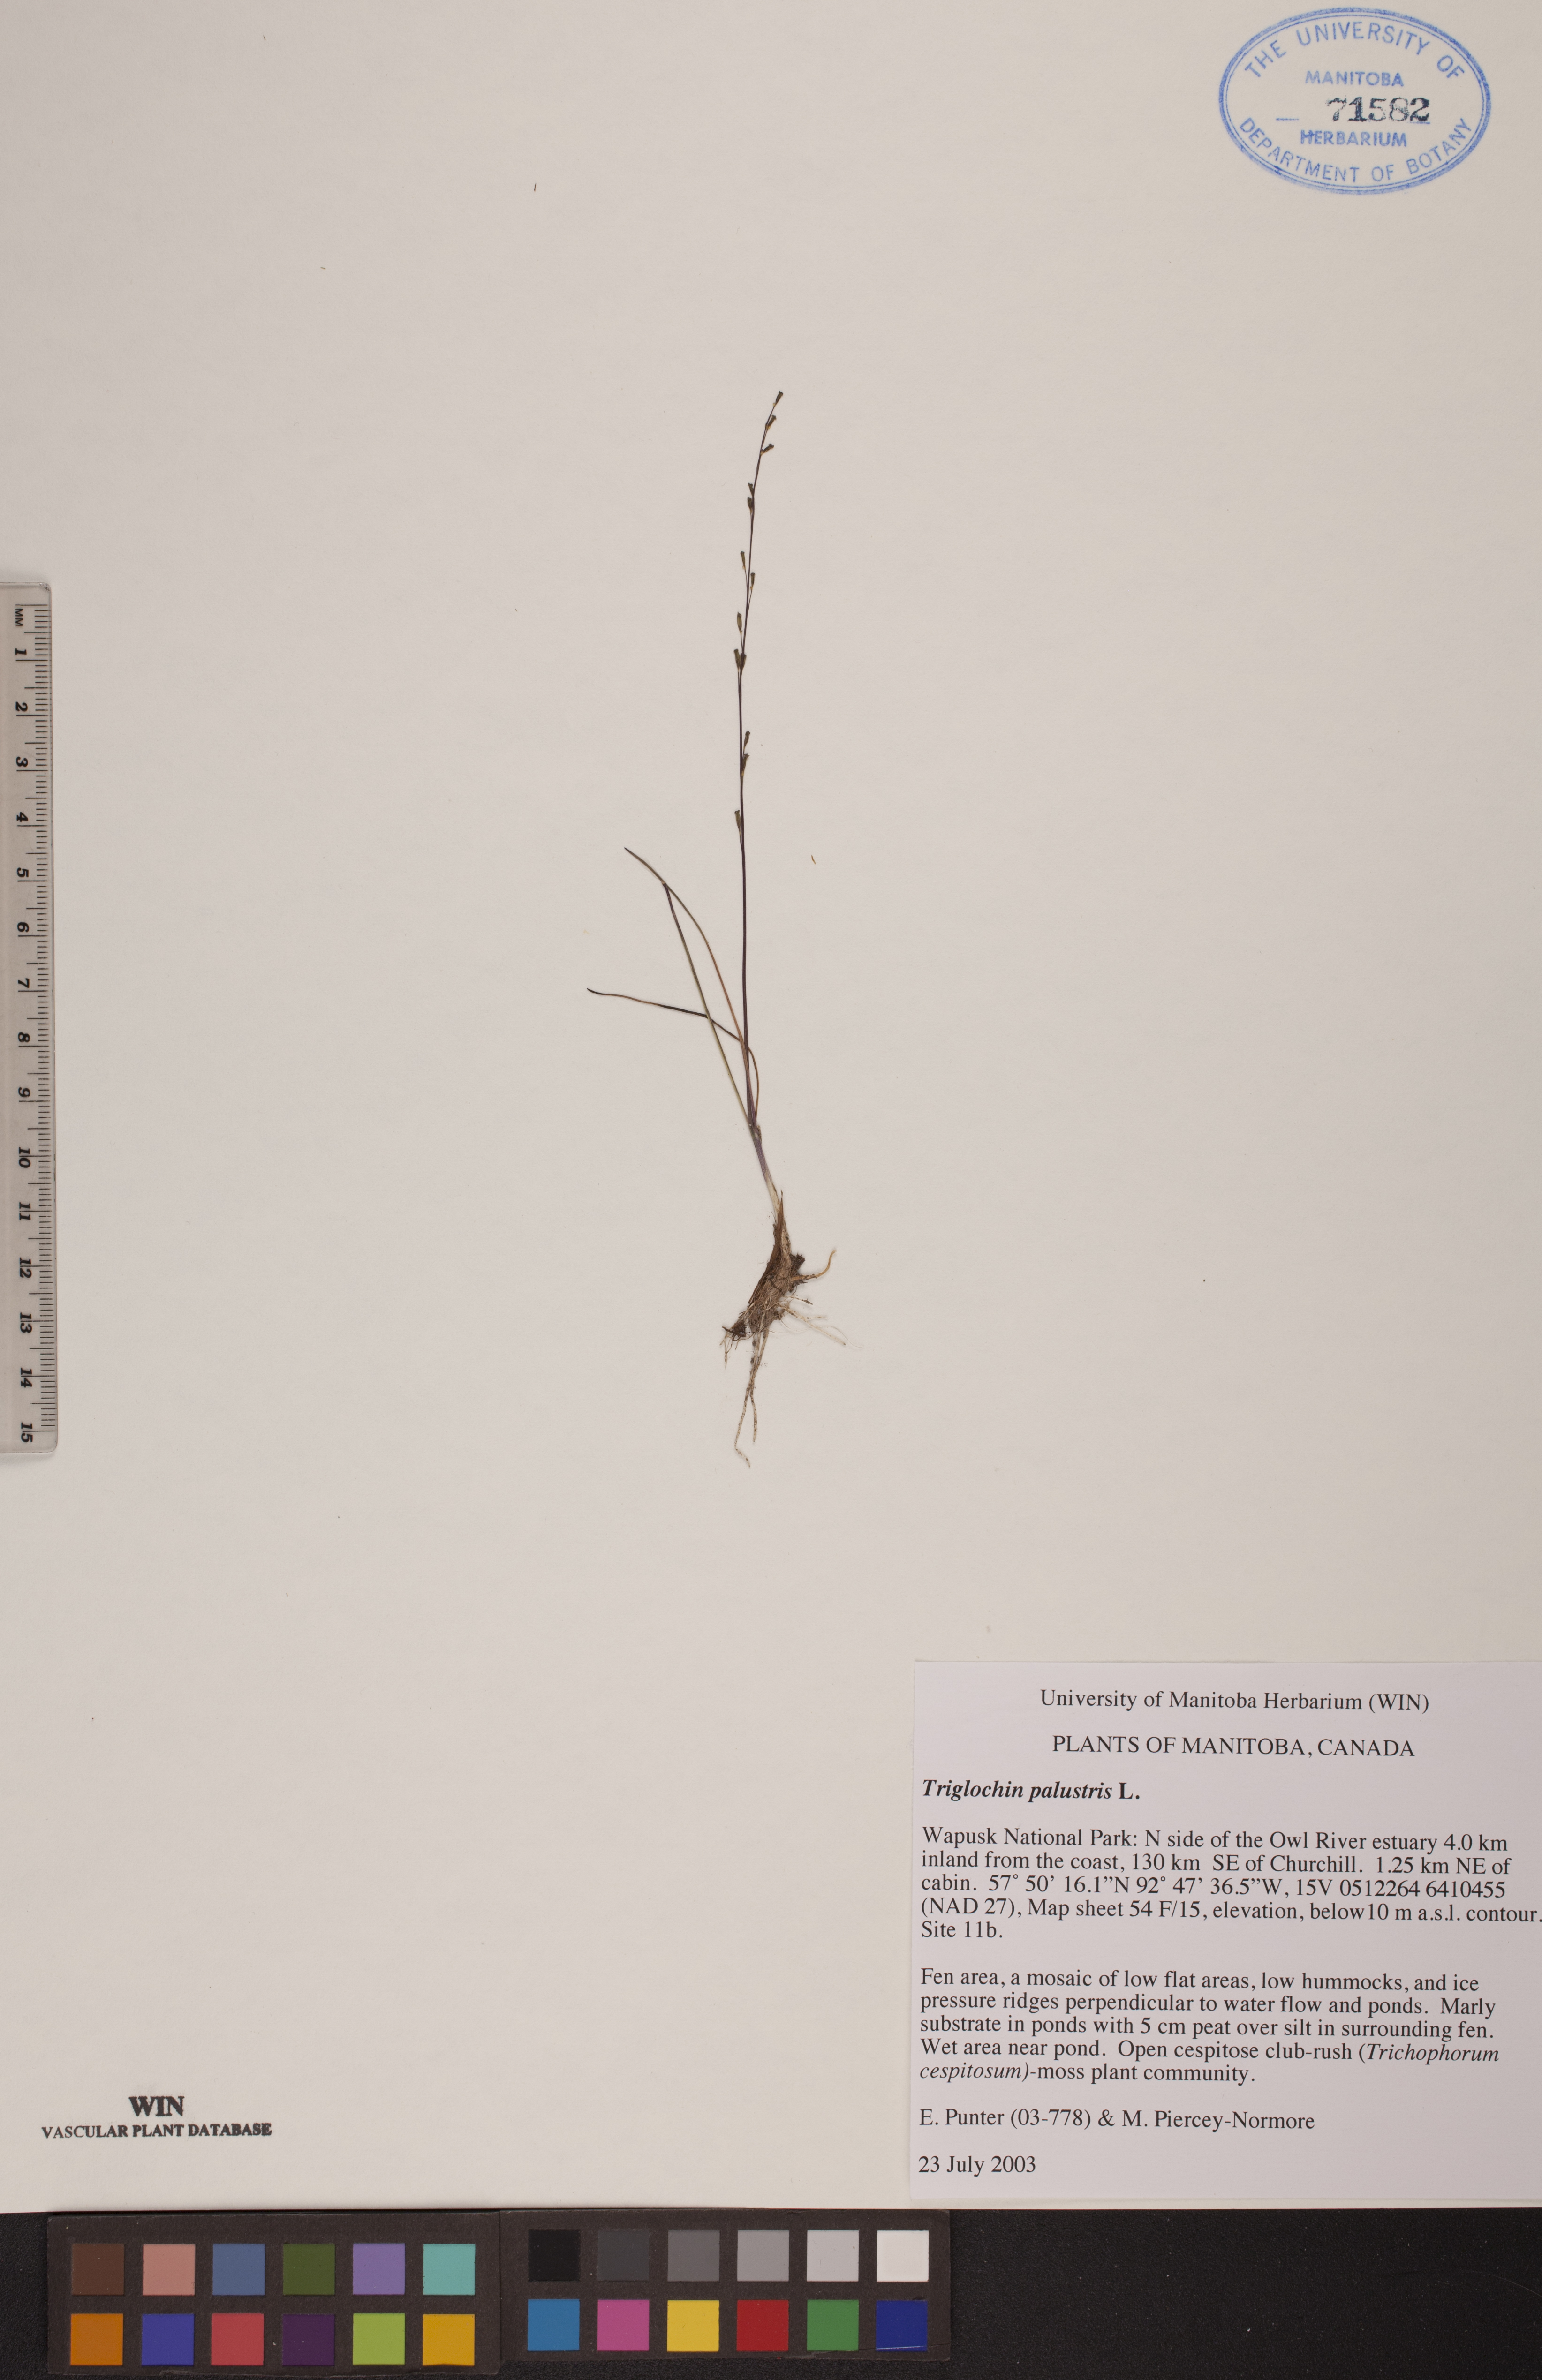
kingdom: Plantae
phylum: Tracheophyta
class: Liliopsida
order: Alismatales
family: Juncaginaceae
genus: Triglochin
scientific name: Triglochin palustris
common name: Marsh arrowgrass
